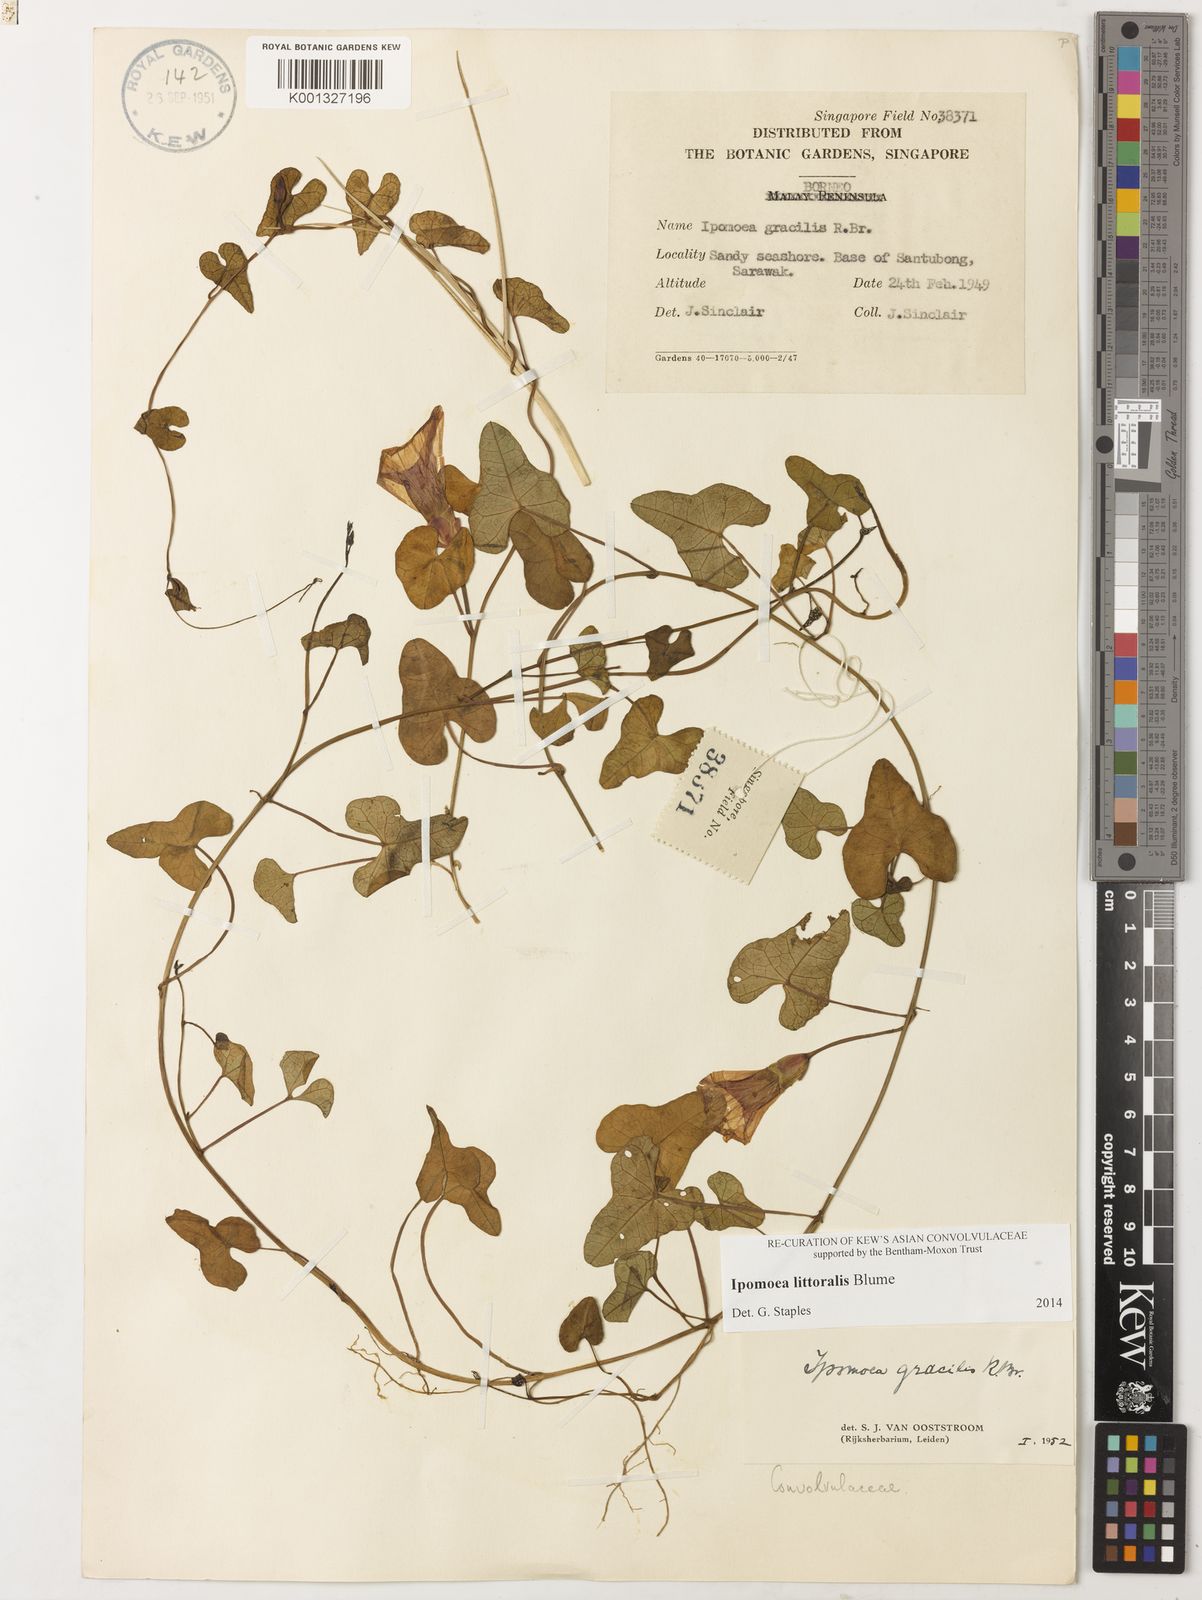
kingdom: Plantae
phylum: Tracheophyta
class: Magnoliopsida
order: Solanales
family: Convolvulaceae
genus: Ipomoea
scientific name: Ipomoea littoralis
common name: Coastal morning glory
